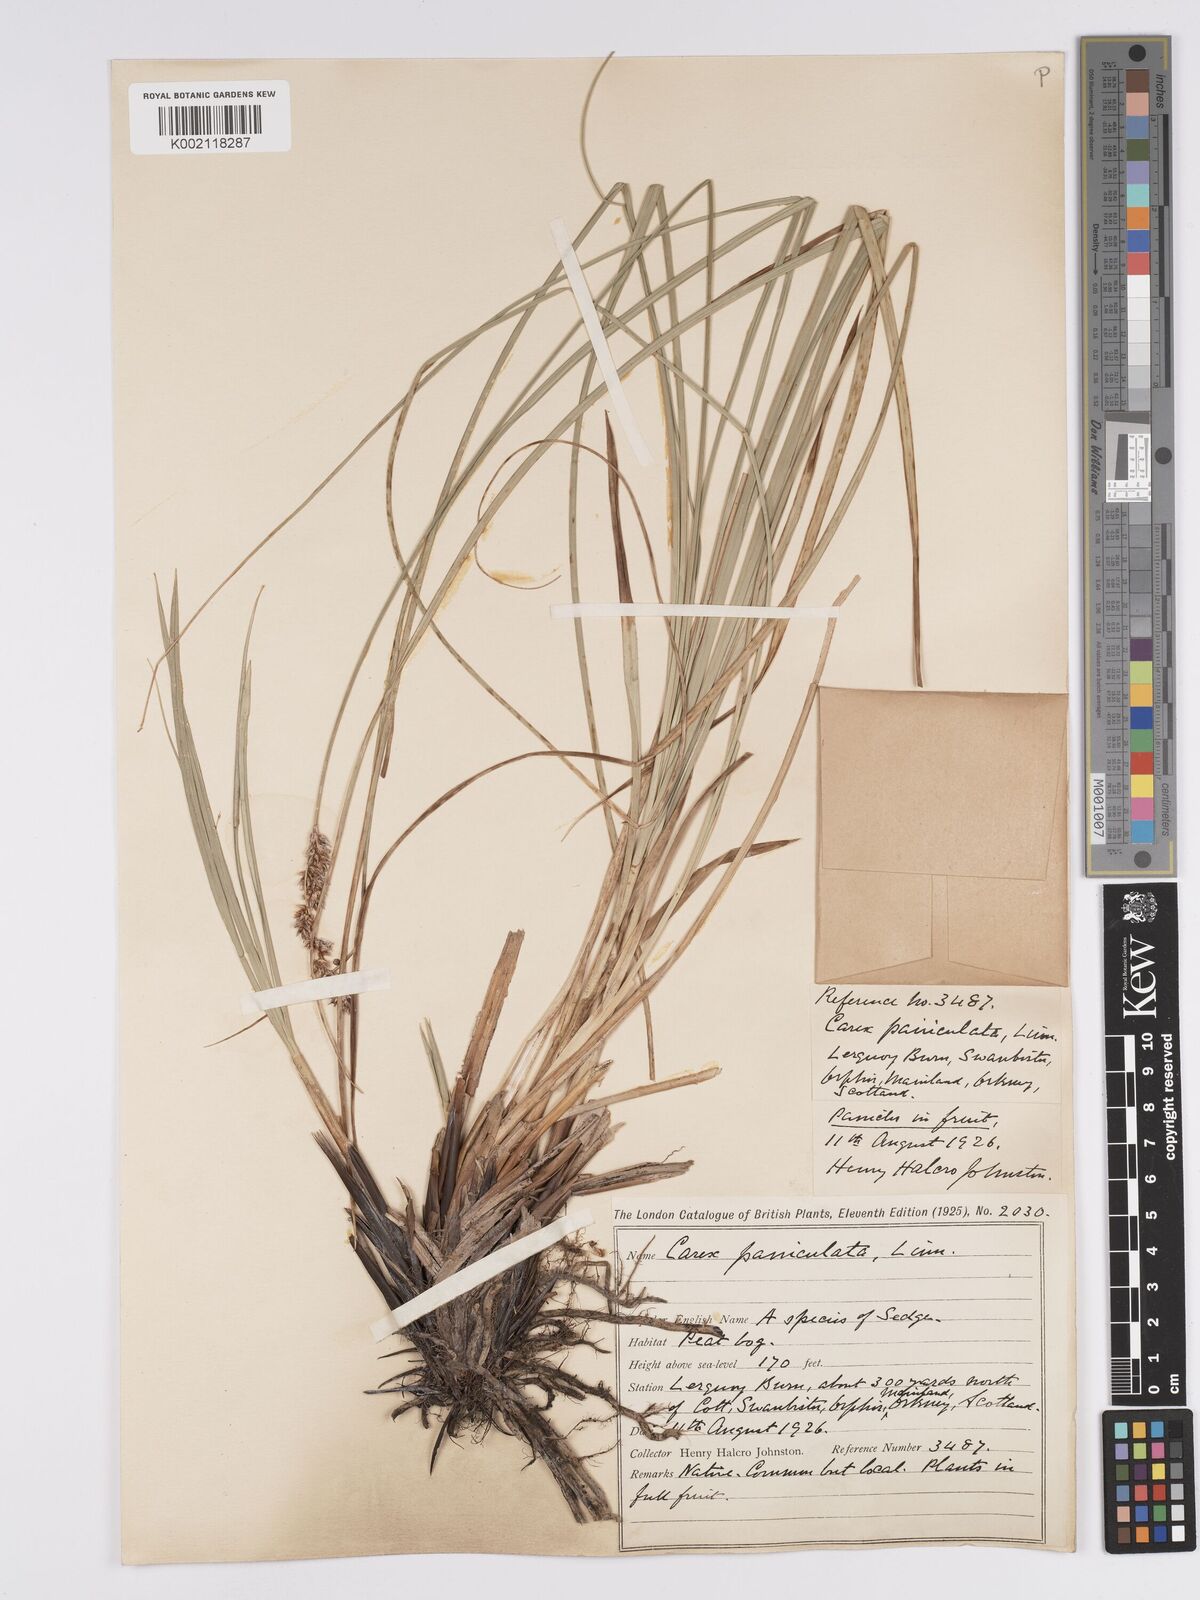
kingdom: Plantae
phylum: Tracheophyta
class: Liliopsida
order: Poales
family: Cyperaceae
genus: Carex
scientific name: Carex paniculata
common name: Greater tussock-sedge
